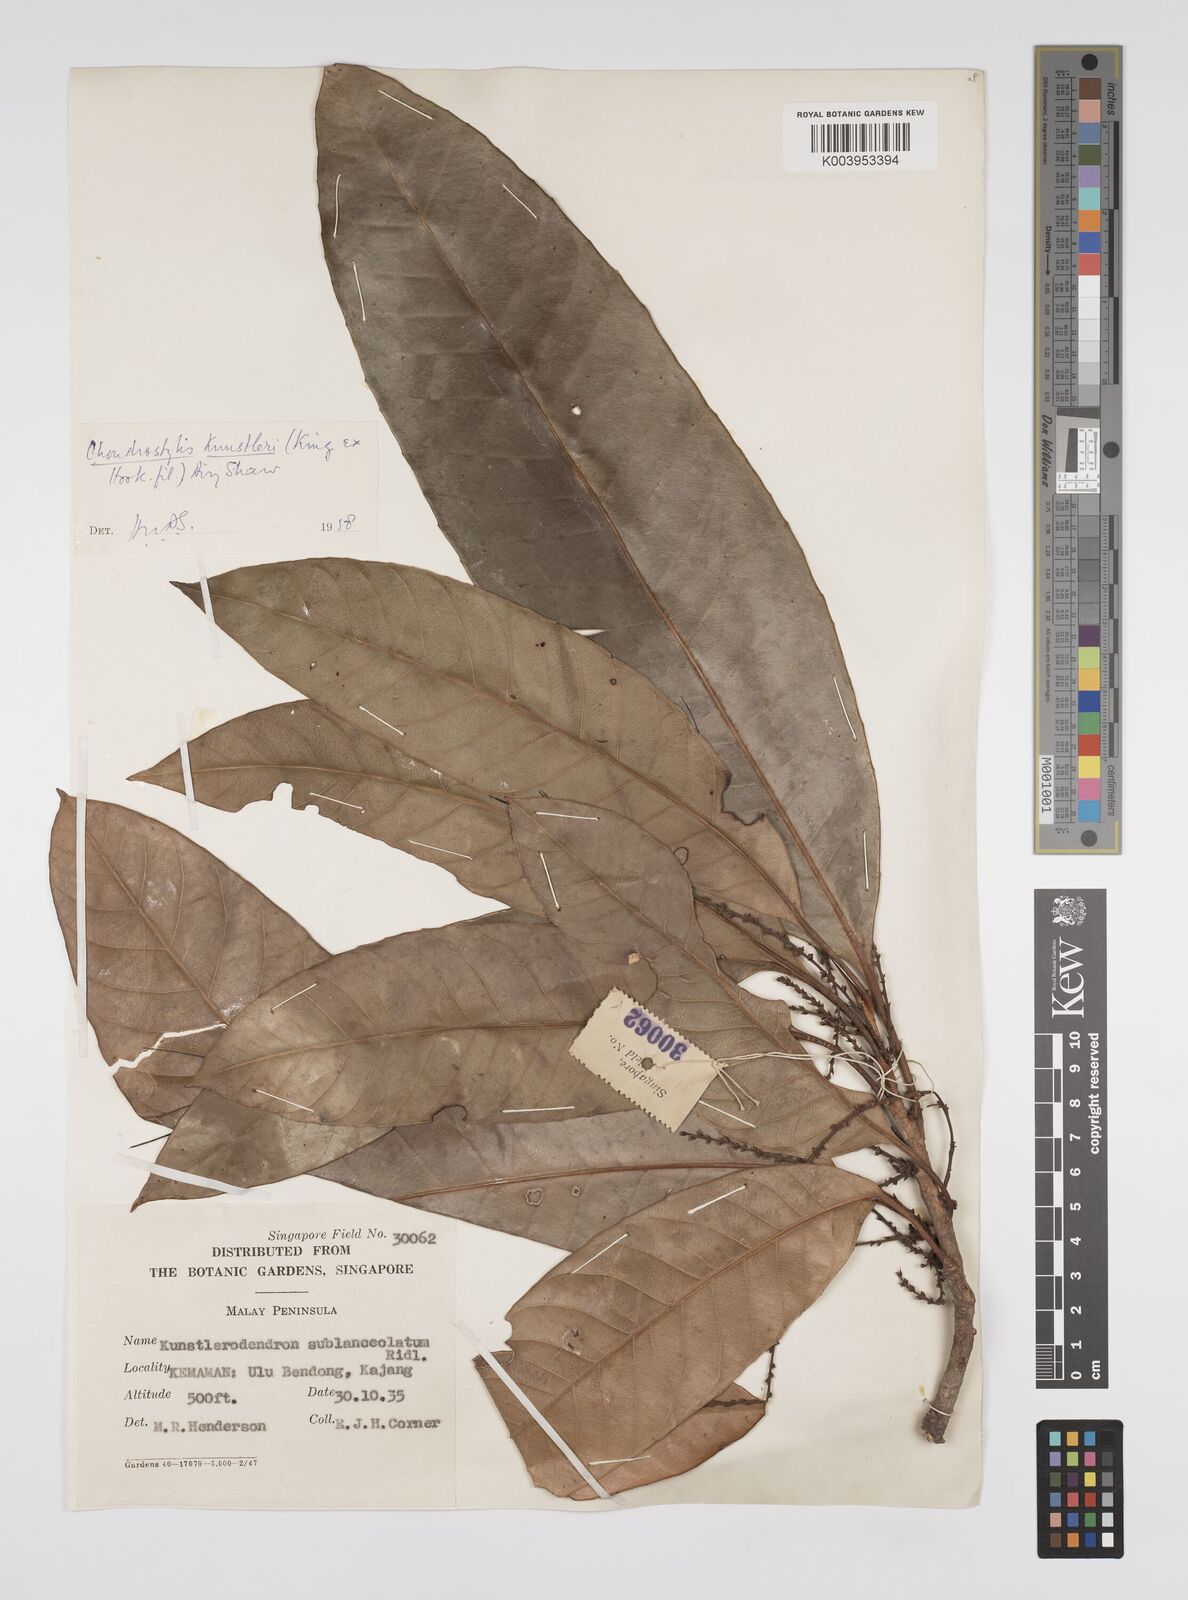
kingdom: Plantae
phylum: Tracheophyta
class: Magnoliopsida
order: Malpighiales
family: Euphorbiaceae
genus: Chondrostylis
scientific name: Chondrostylis kunstleri
